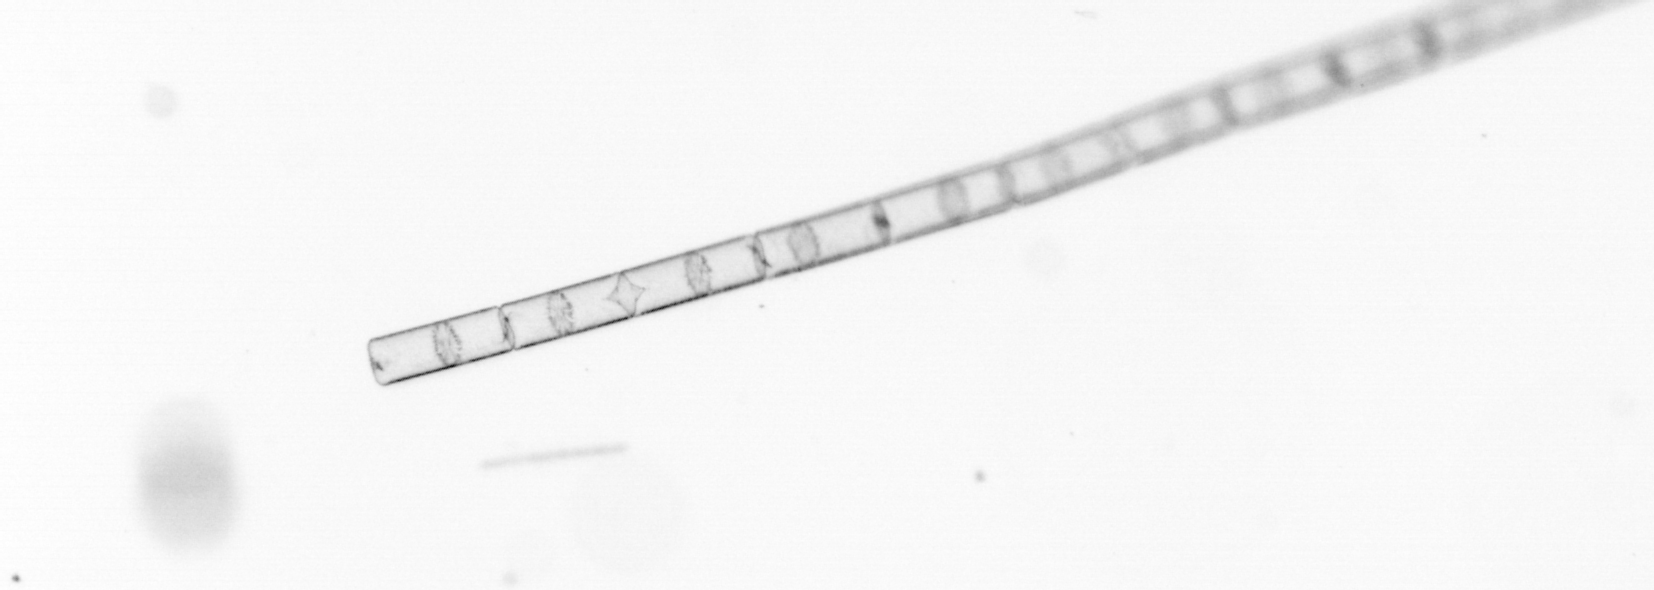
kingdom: Chromista
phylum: Ochrophyta
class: Bacillariophyceae
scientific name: Bacillariophyceae
